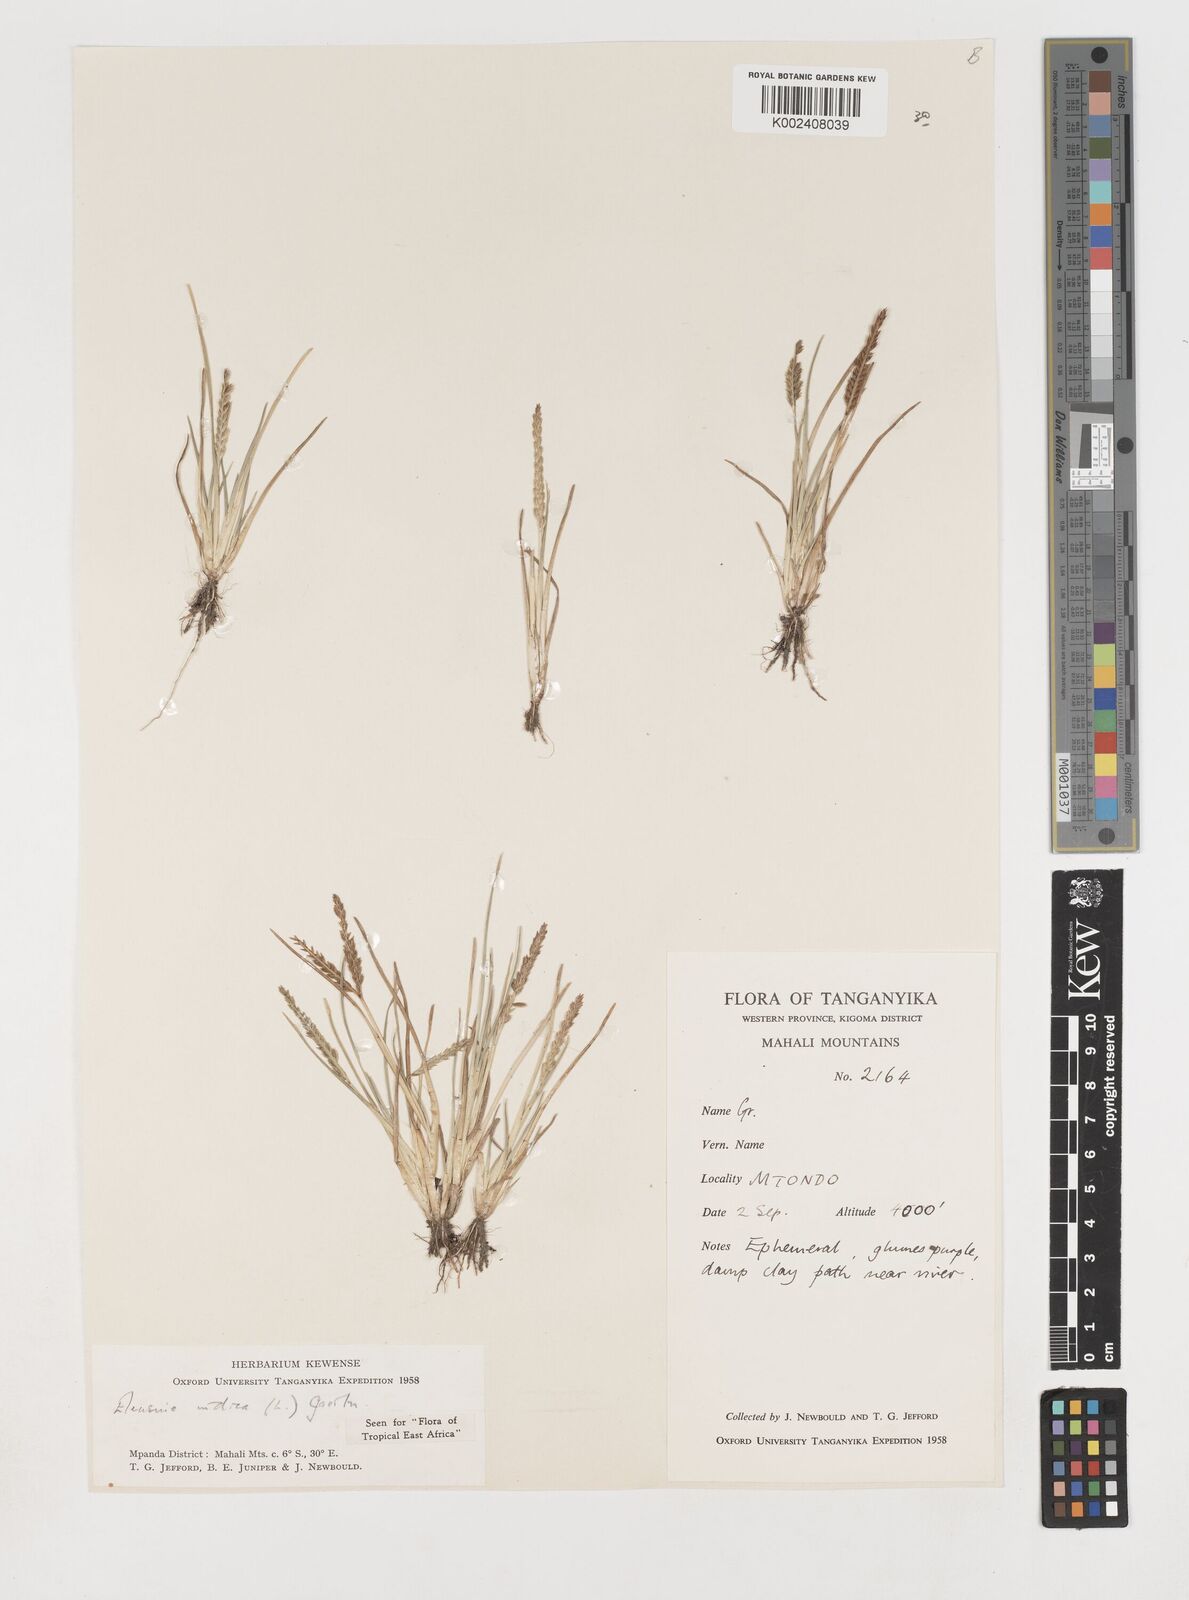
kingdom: Plantae
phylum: Tracheophyta
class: Liliopsida
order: Poales
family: Poaceae
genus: Eleusine
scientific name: Eleusine indica
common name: Yard-grass
